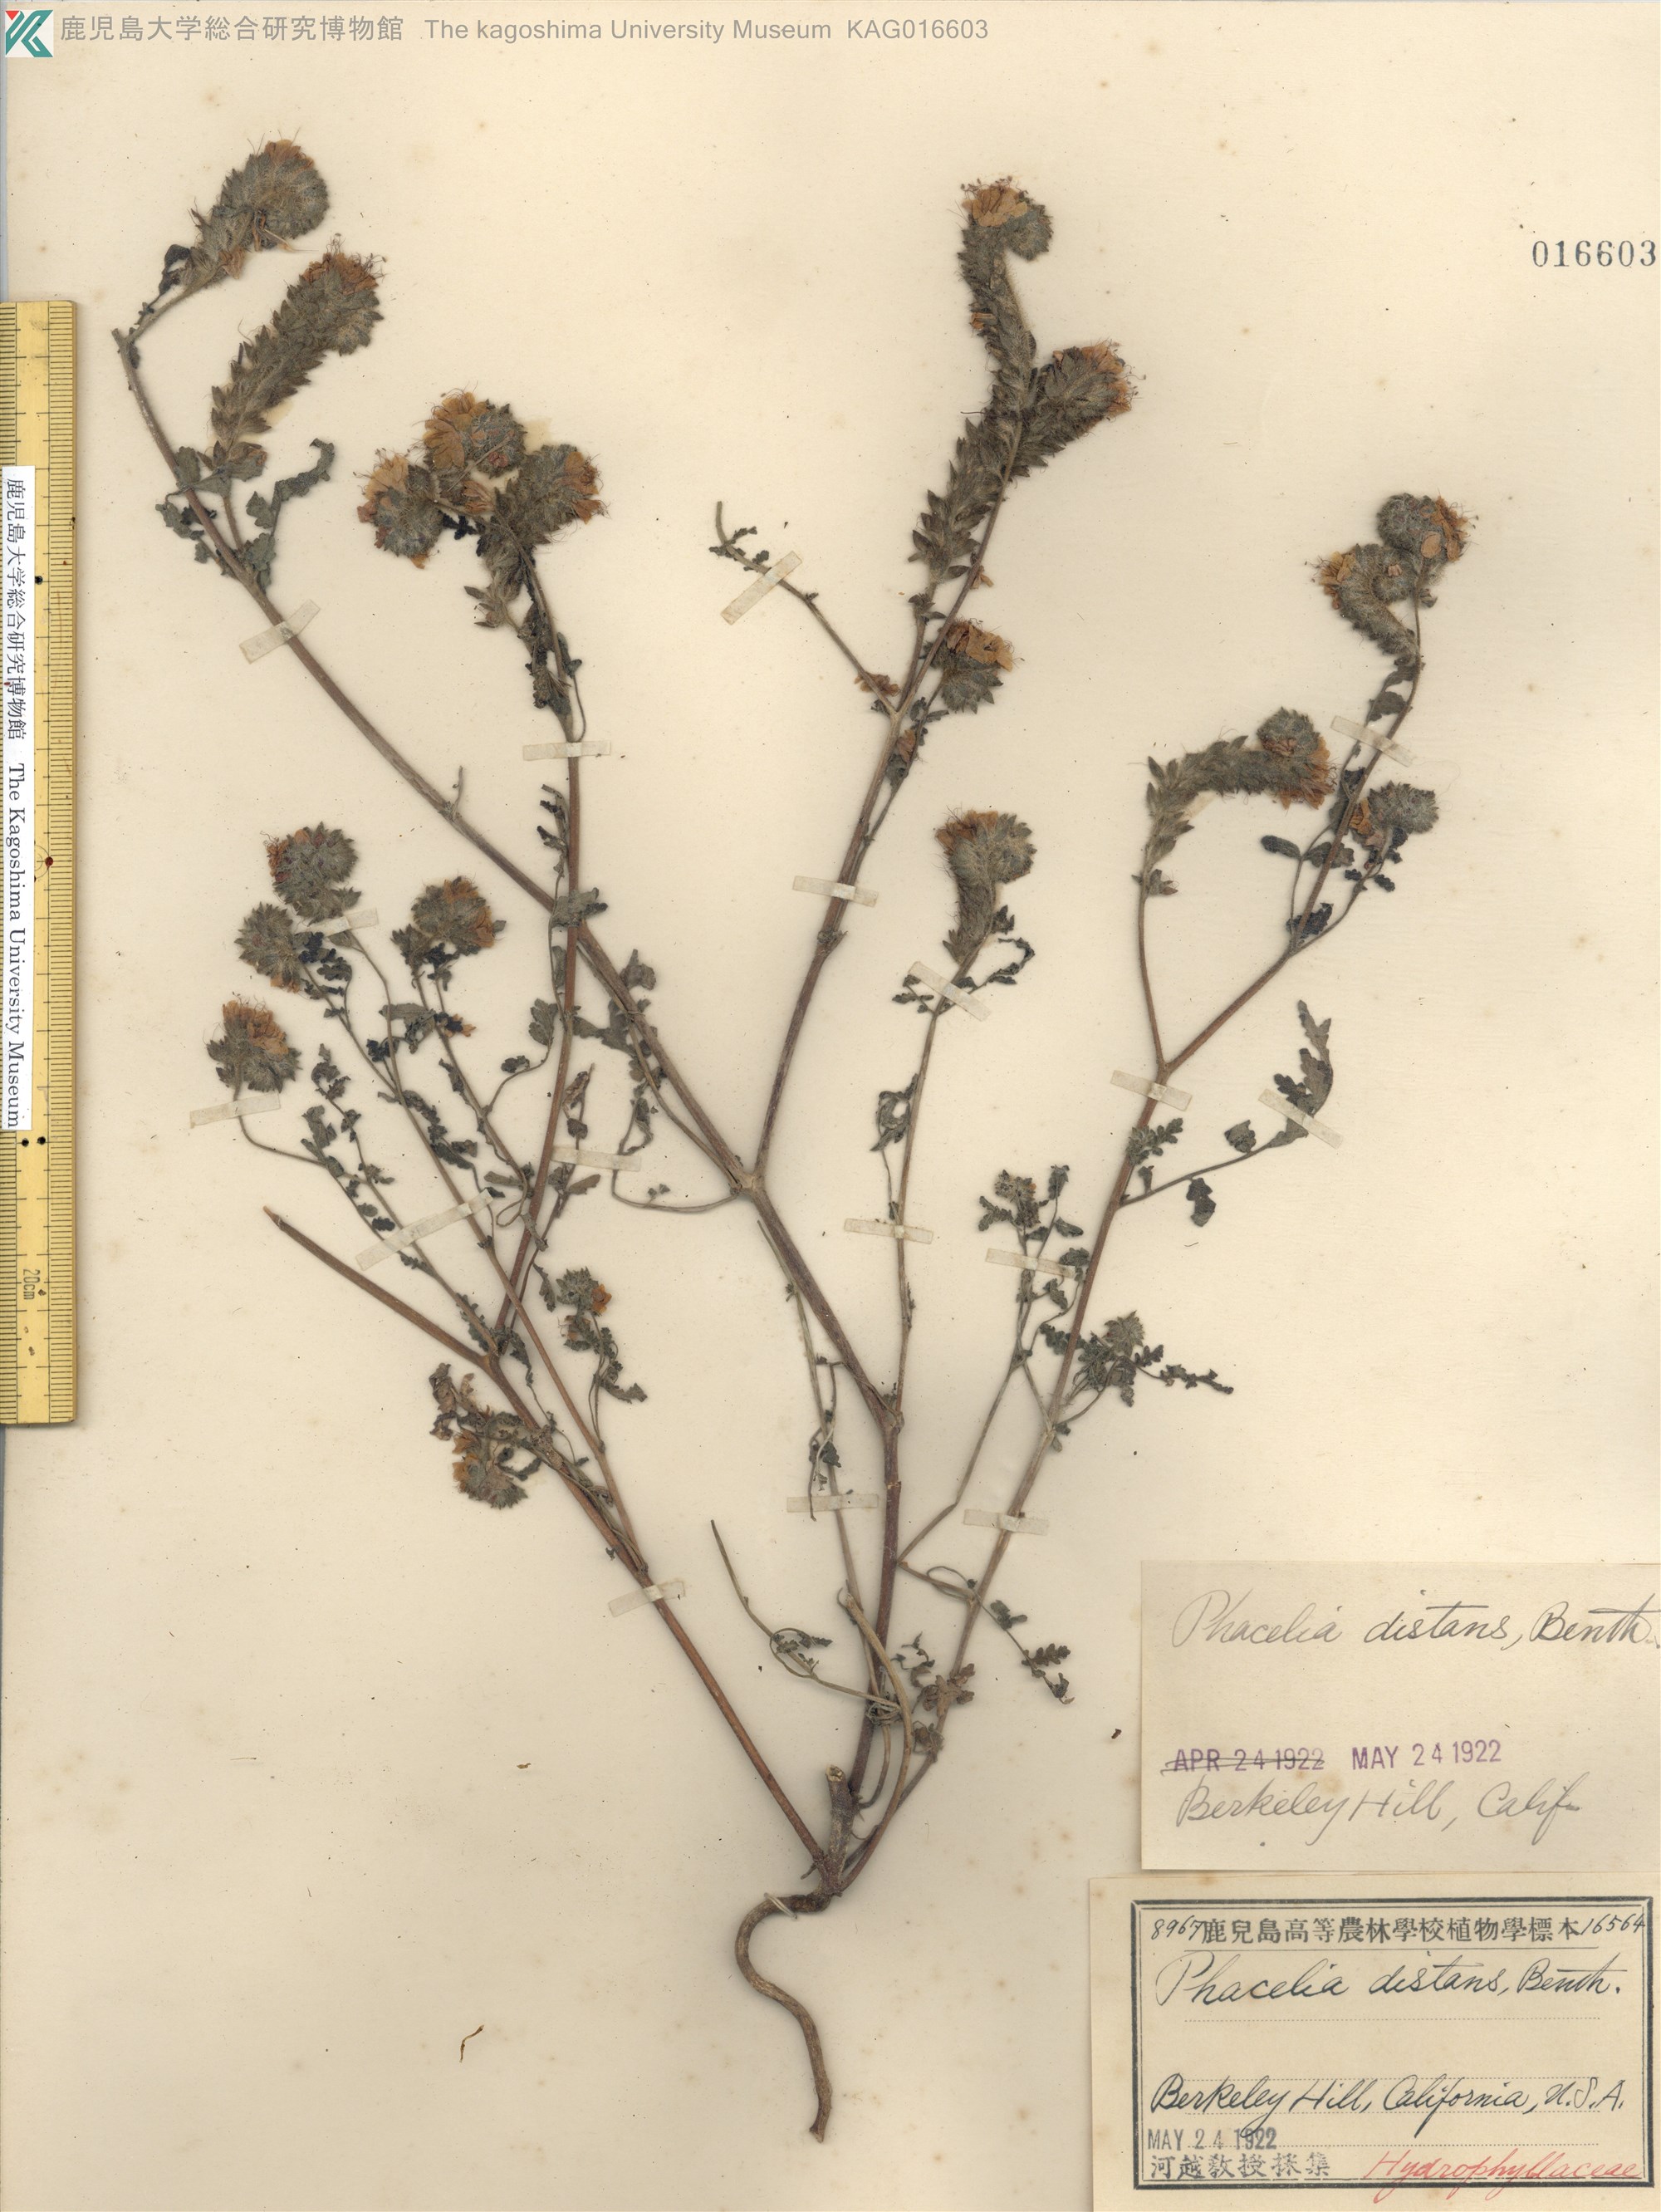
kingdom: Plantae
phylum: Tracheophyta
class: Magnoliopsida
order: Boraginales
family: Hydrophyllaceae
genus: Phacelia
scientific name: Phacelia distans
